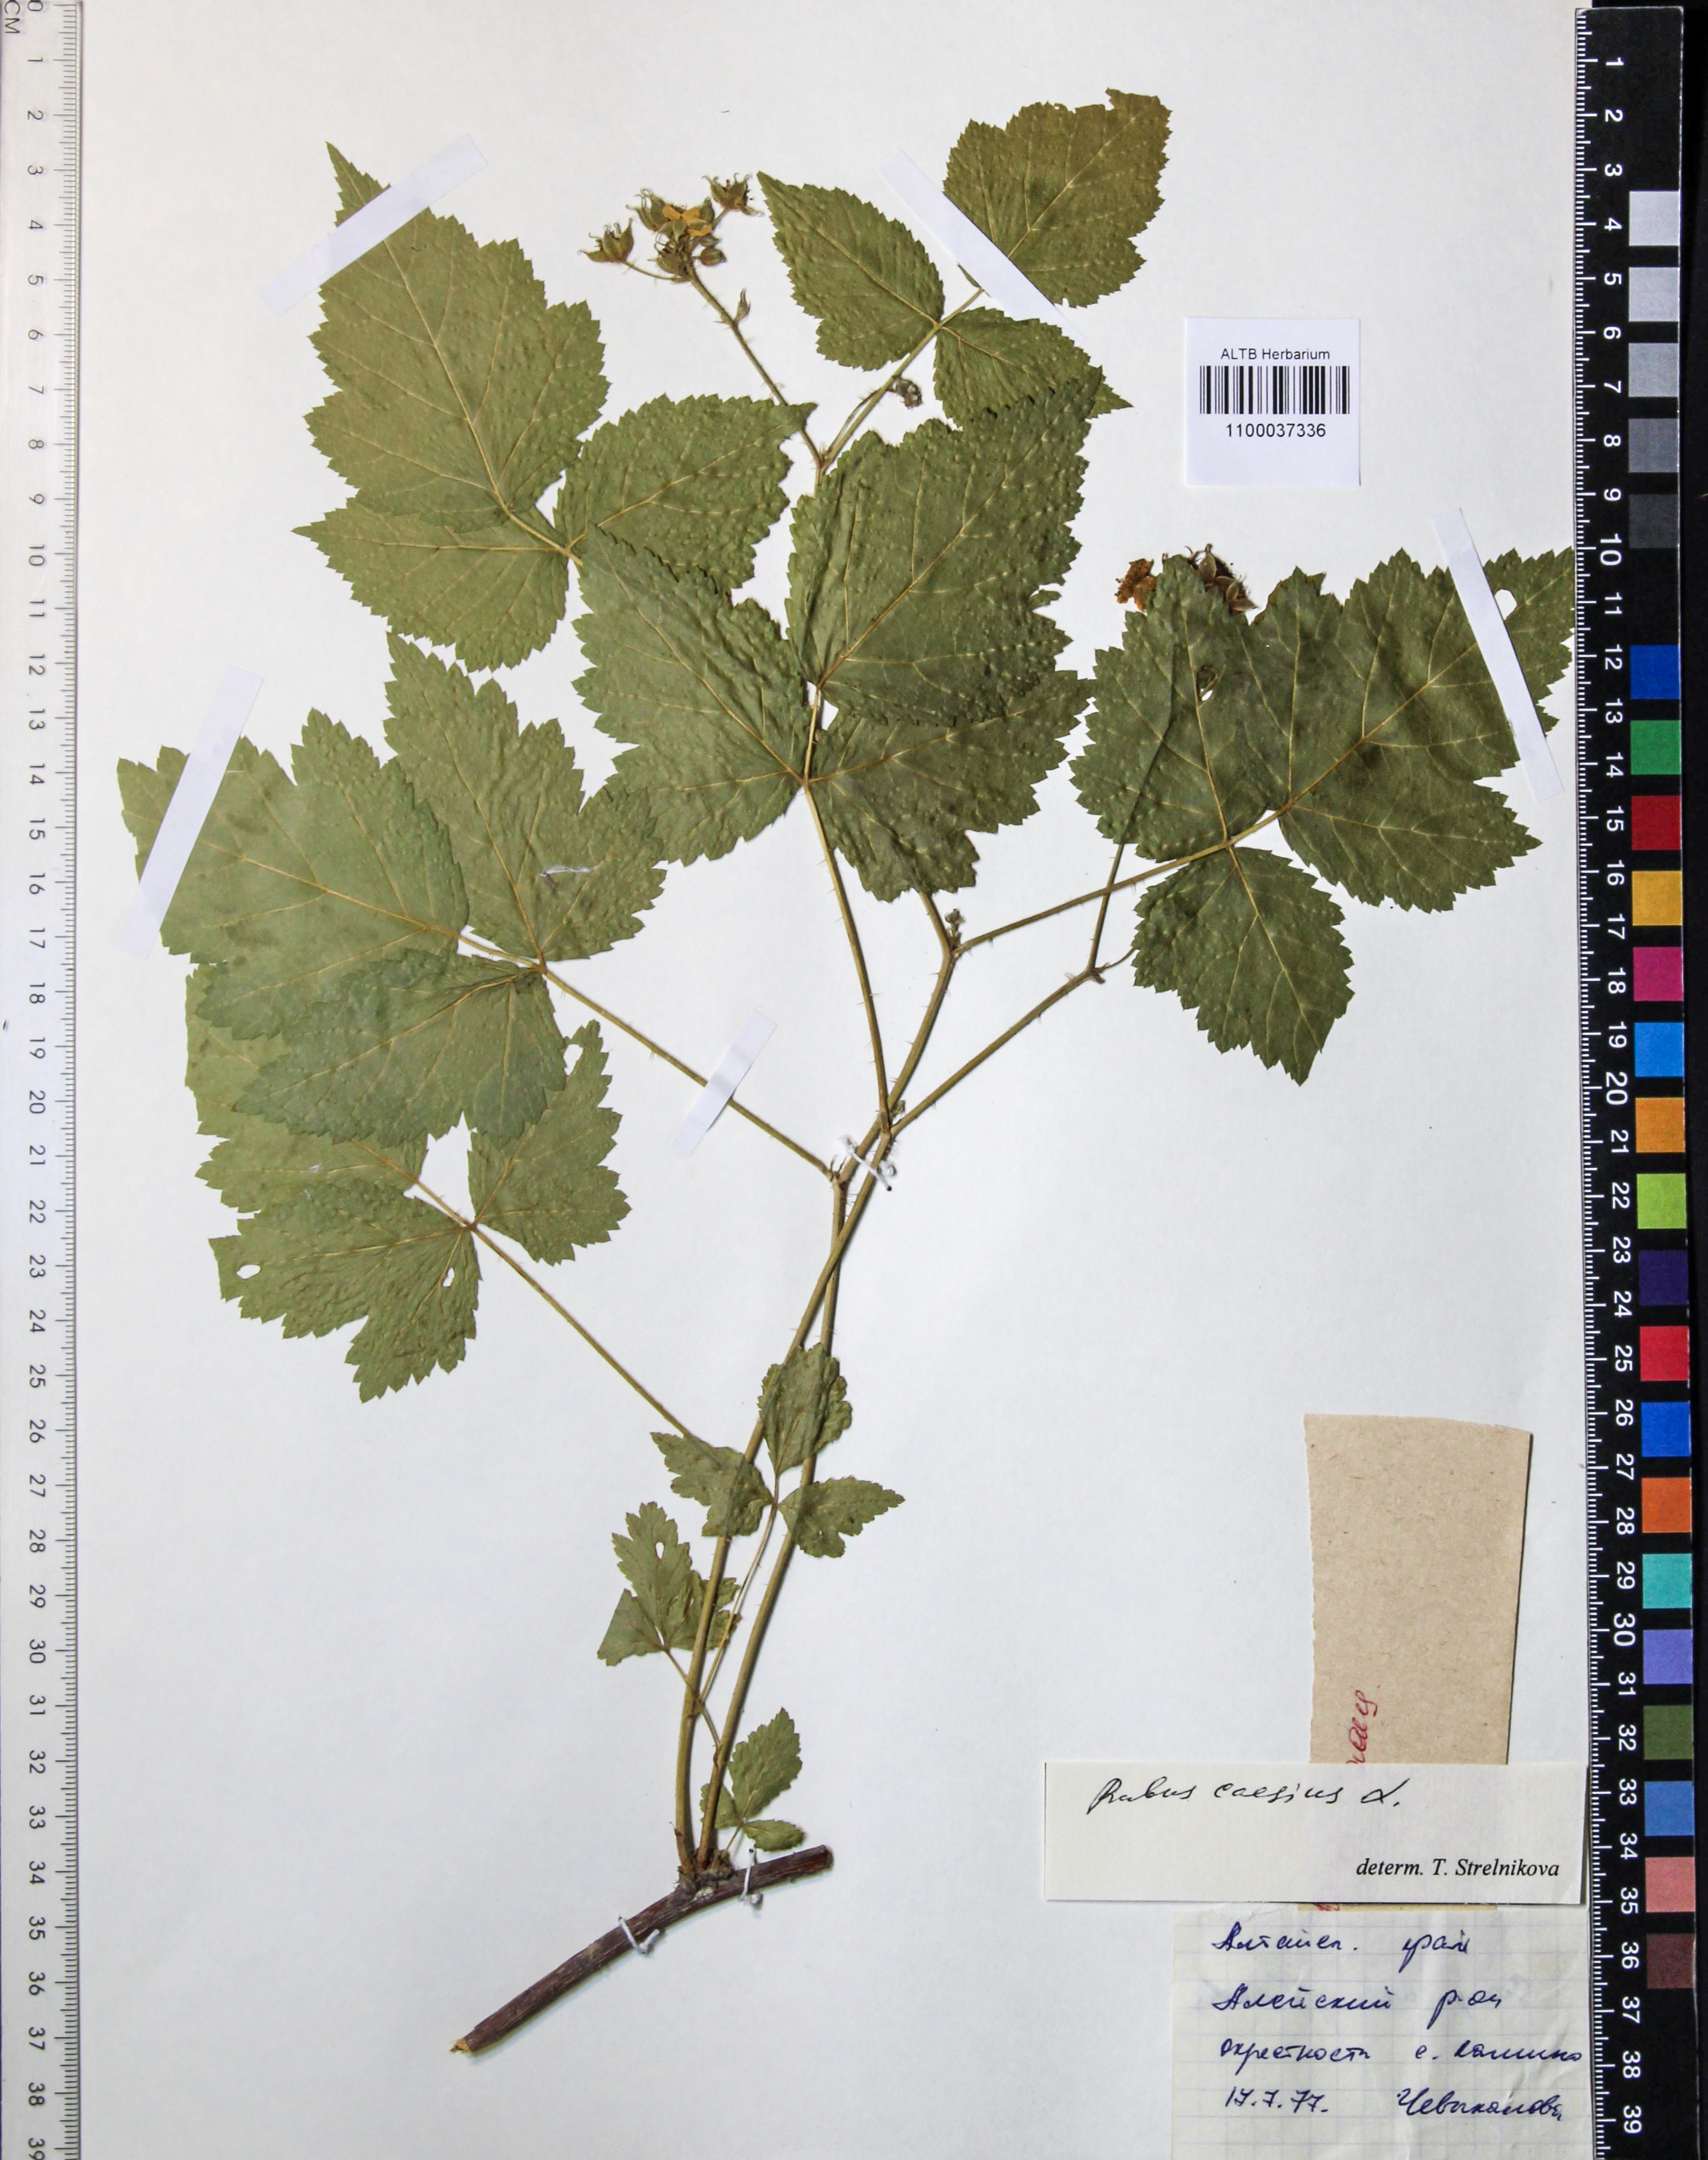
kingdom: Plantae
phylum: Tracheophyta
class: Magnoliopsida
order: Rosales
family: Rosaceae
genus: Rubus
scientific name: Rubus caesius
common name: Dewberry
